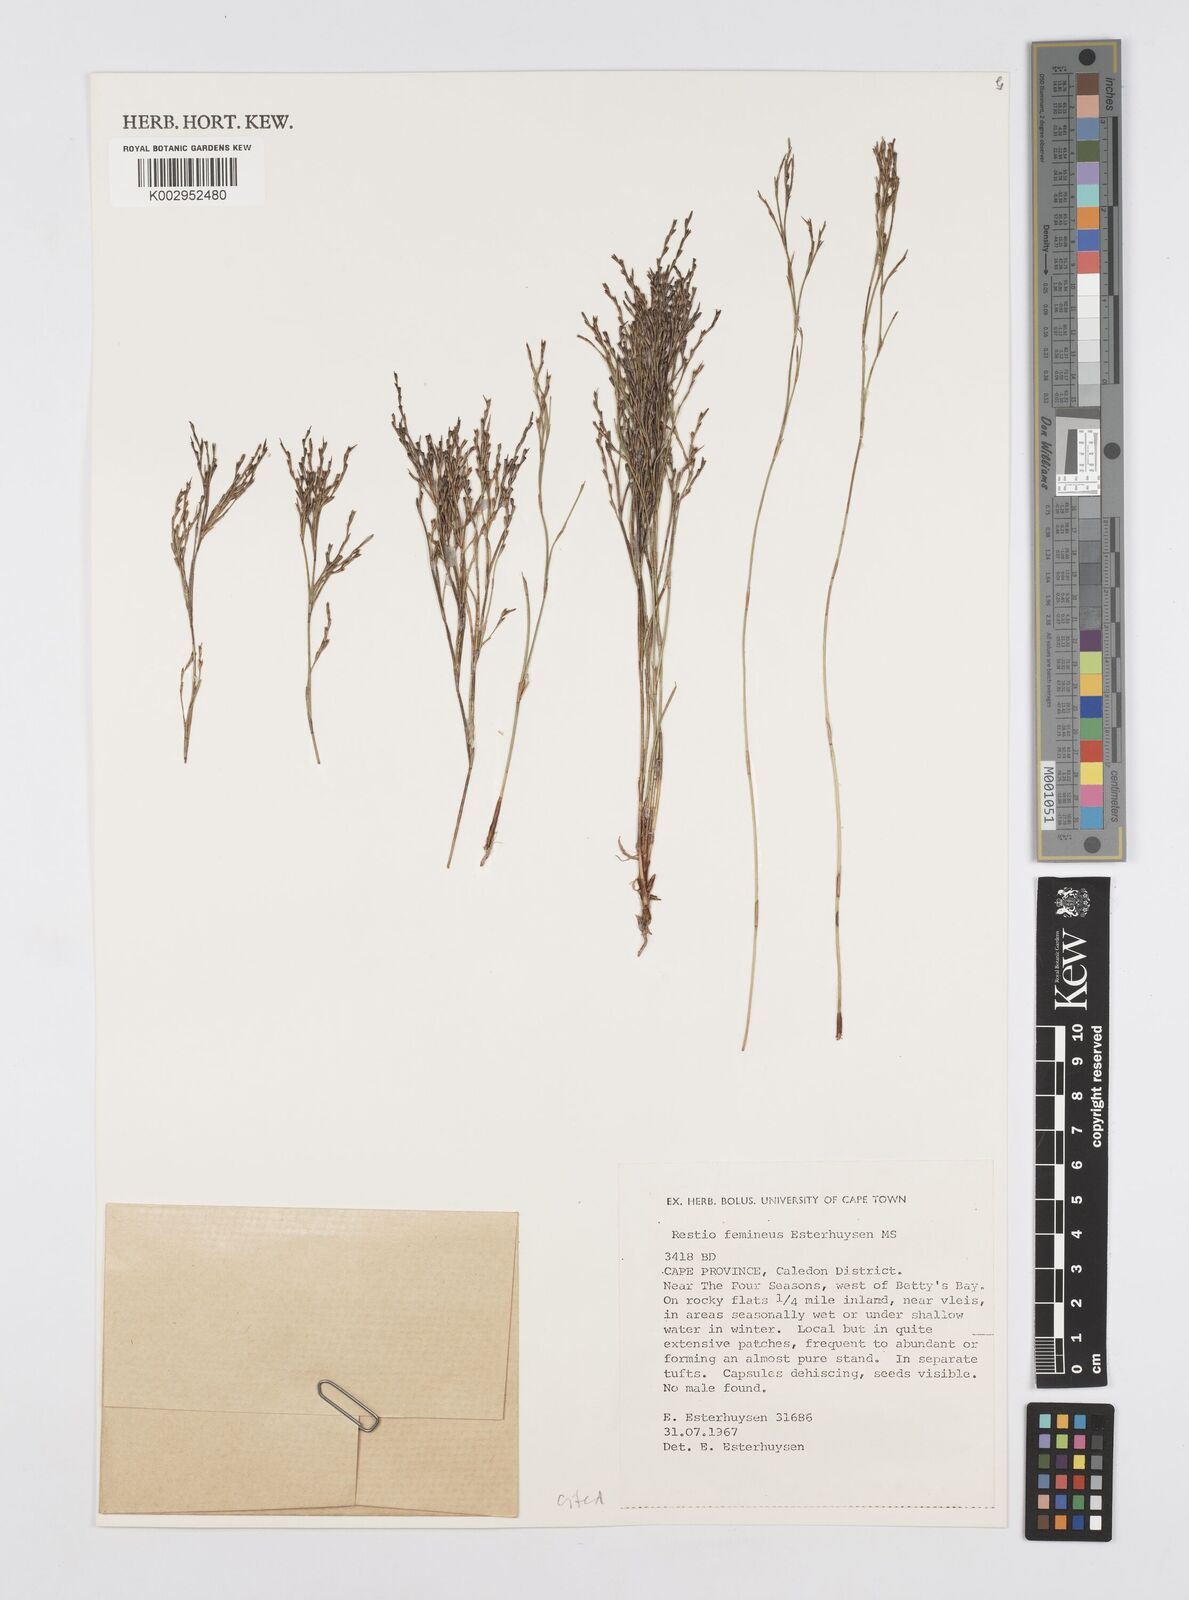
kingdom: Plantae
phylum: Tracheophyta
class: Liliopsida
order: Poales
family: Restionaceae
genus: Restio
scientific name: Restio femineus
